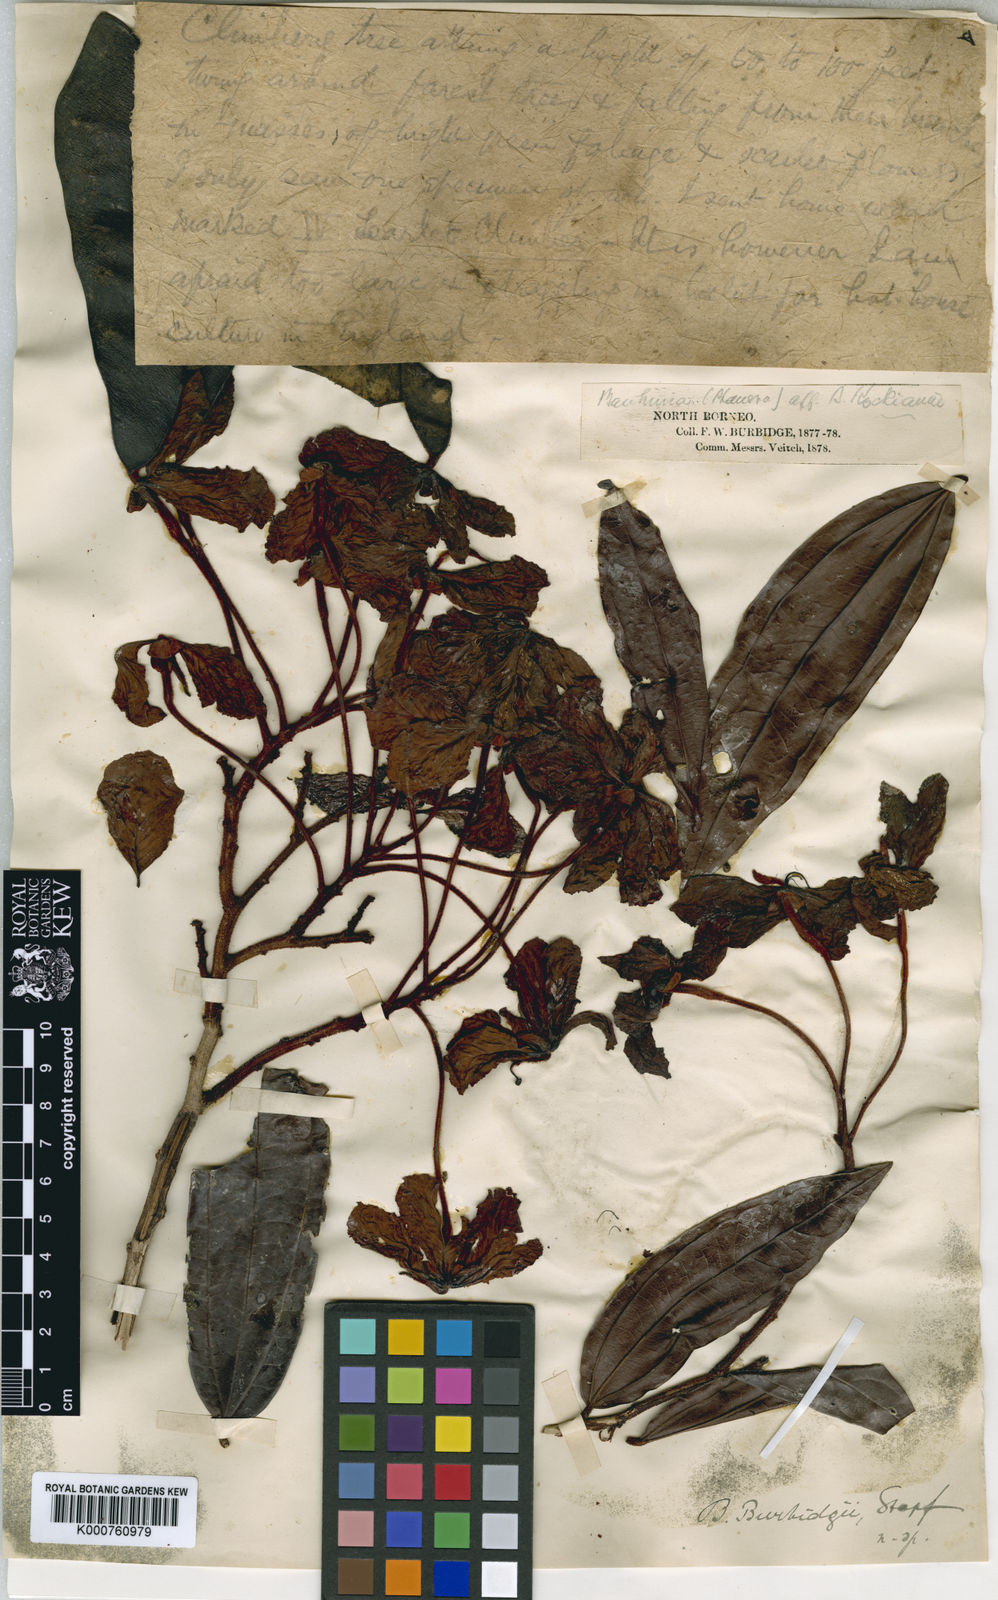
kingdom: Plantae
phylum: Tracheophyta
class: Magnoliopsida
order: Fabales
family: Fabaceae
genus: Phanera
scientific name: Phanera kockiana
